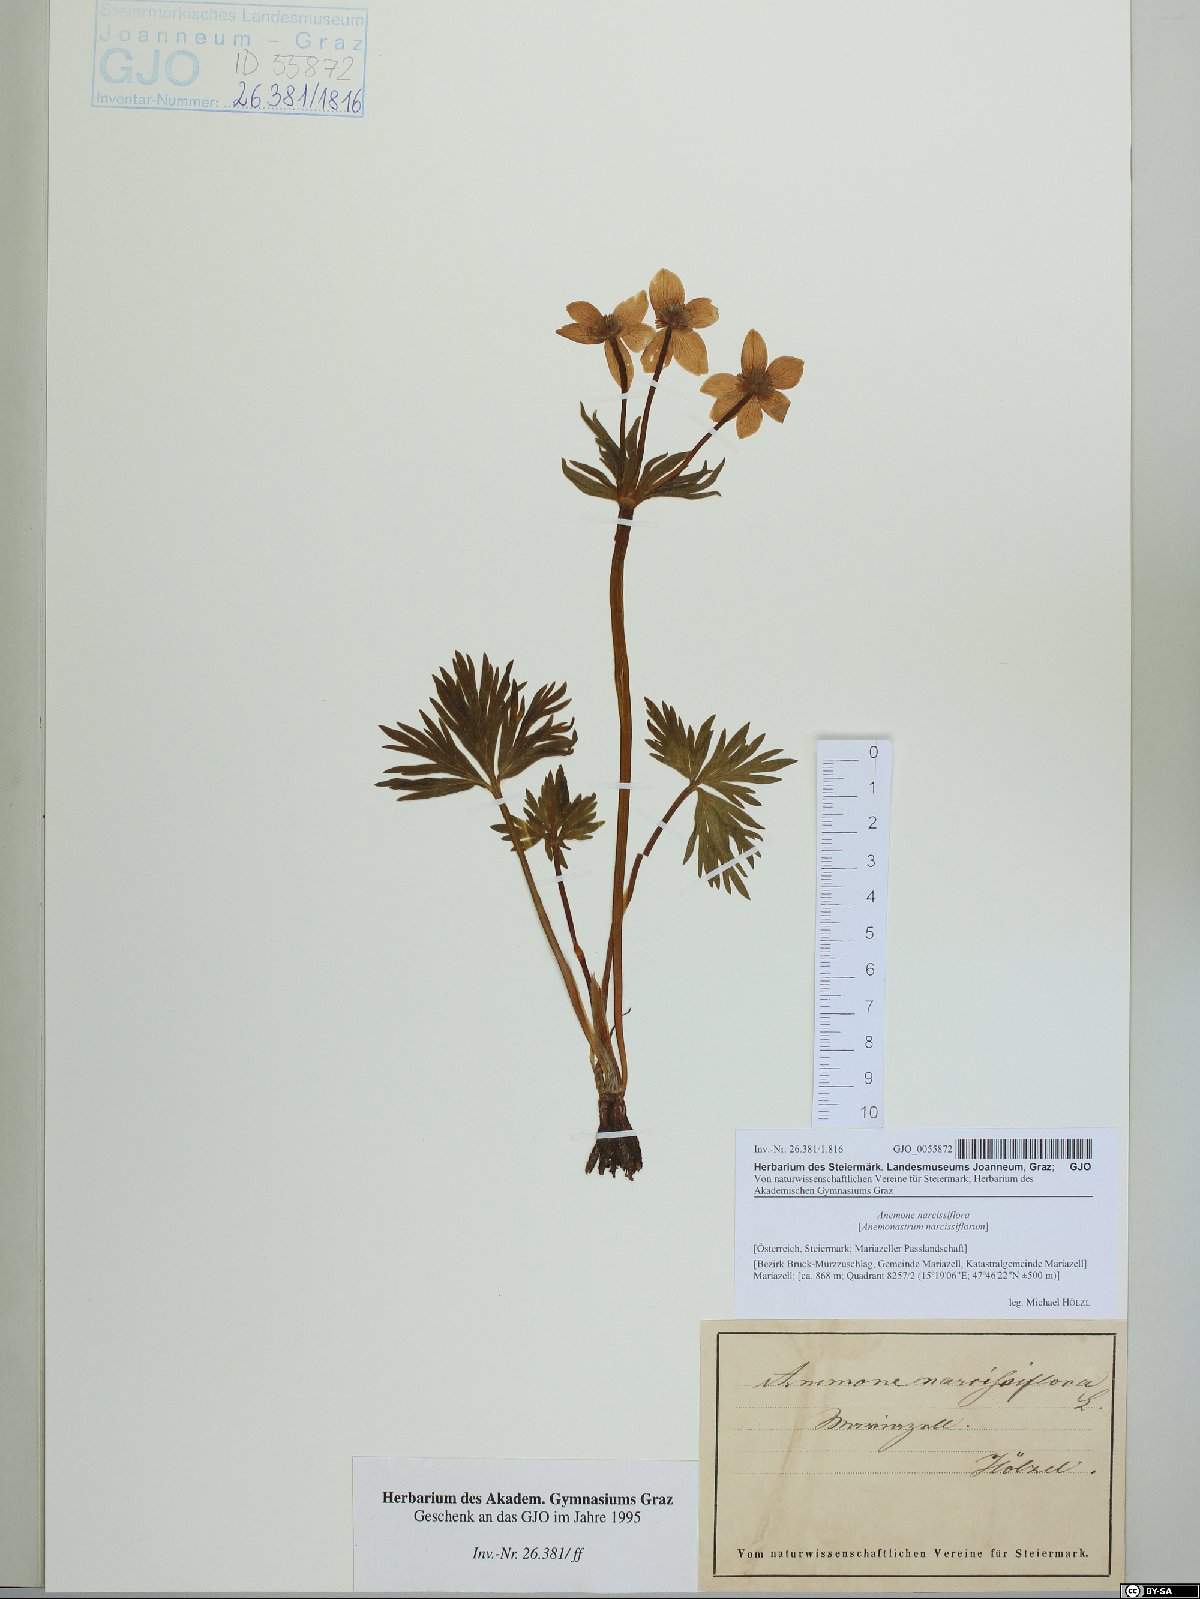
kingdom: Plantae
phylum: Tracheophyta
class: Magnoliopsida
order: Ranunculales
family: Ranunculaceae
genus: Anemonastrum
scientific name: Anemonastrum narcissiflorum
